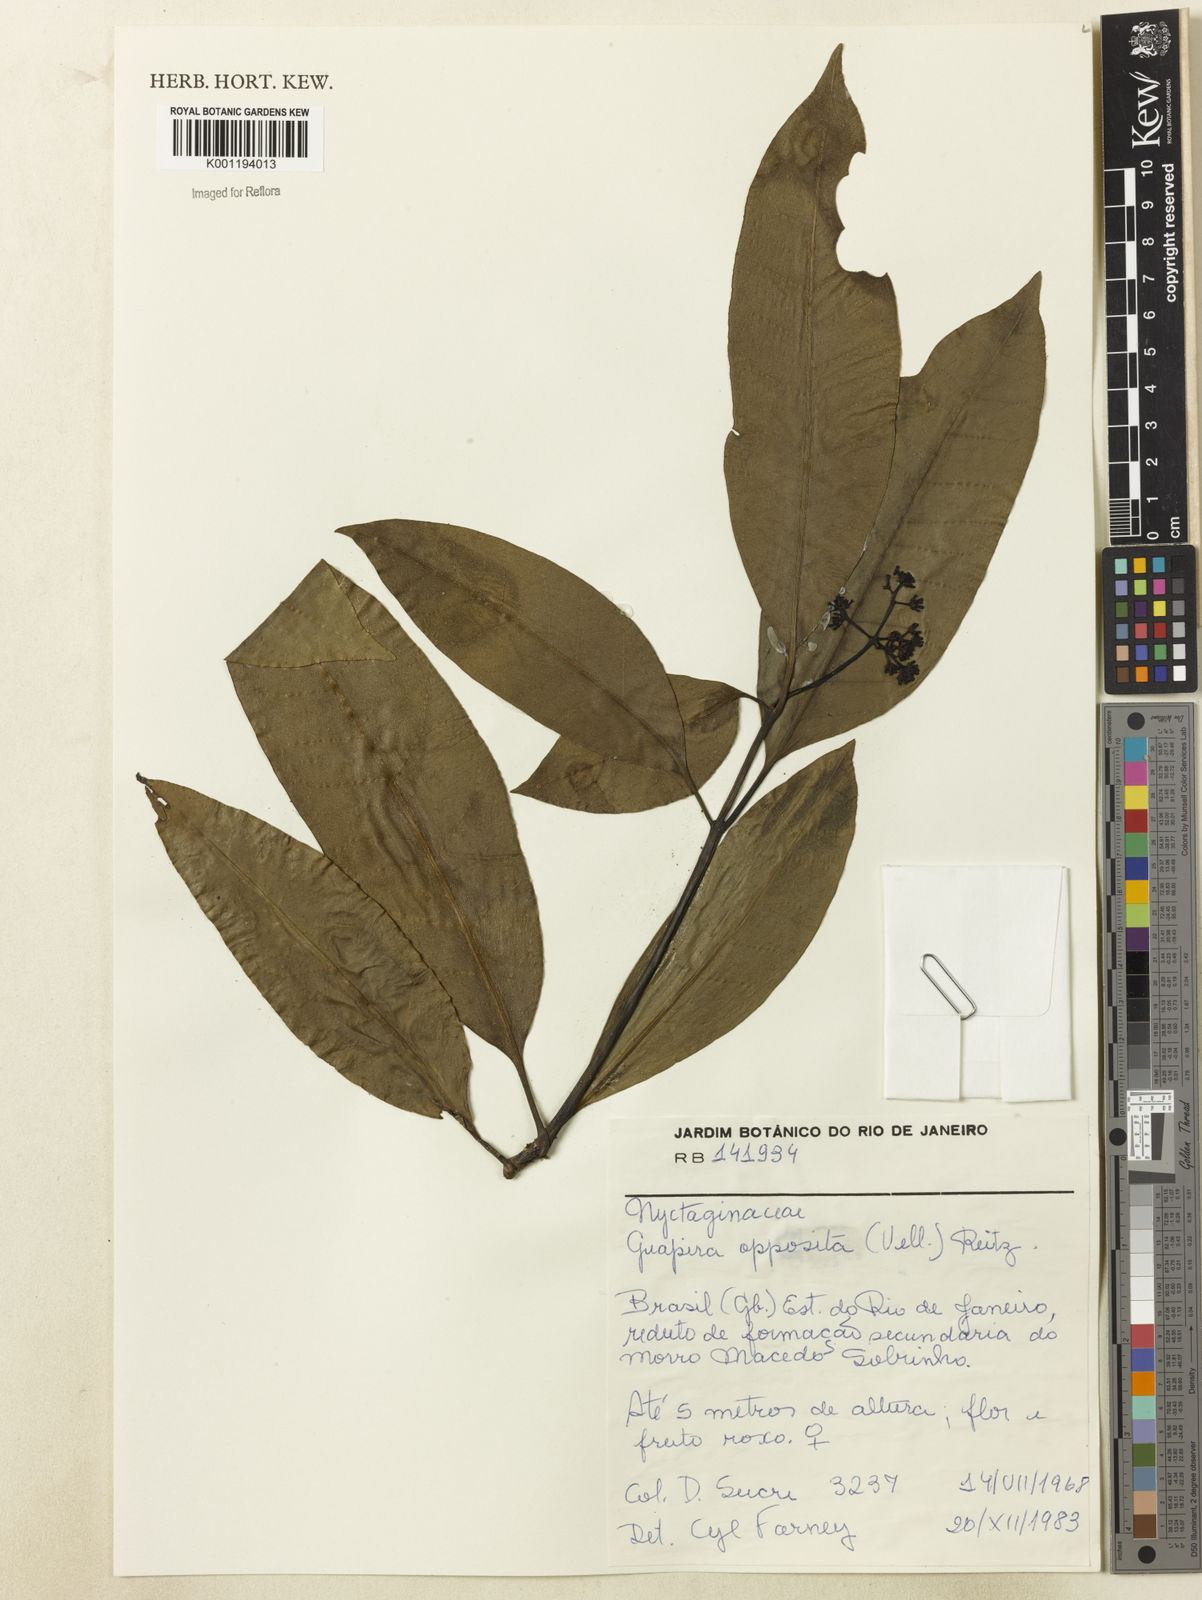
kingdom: Plantae
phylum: Tracheophyta
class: Magnoliopsida
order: Caryophyllales
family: Nyctaginaceae
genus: Guapira
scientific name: Guapira opposita
